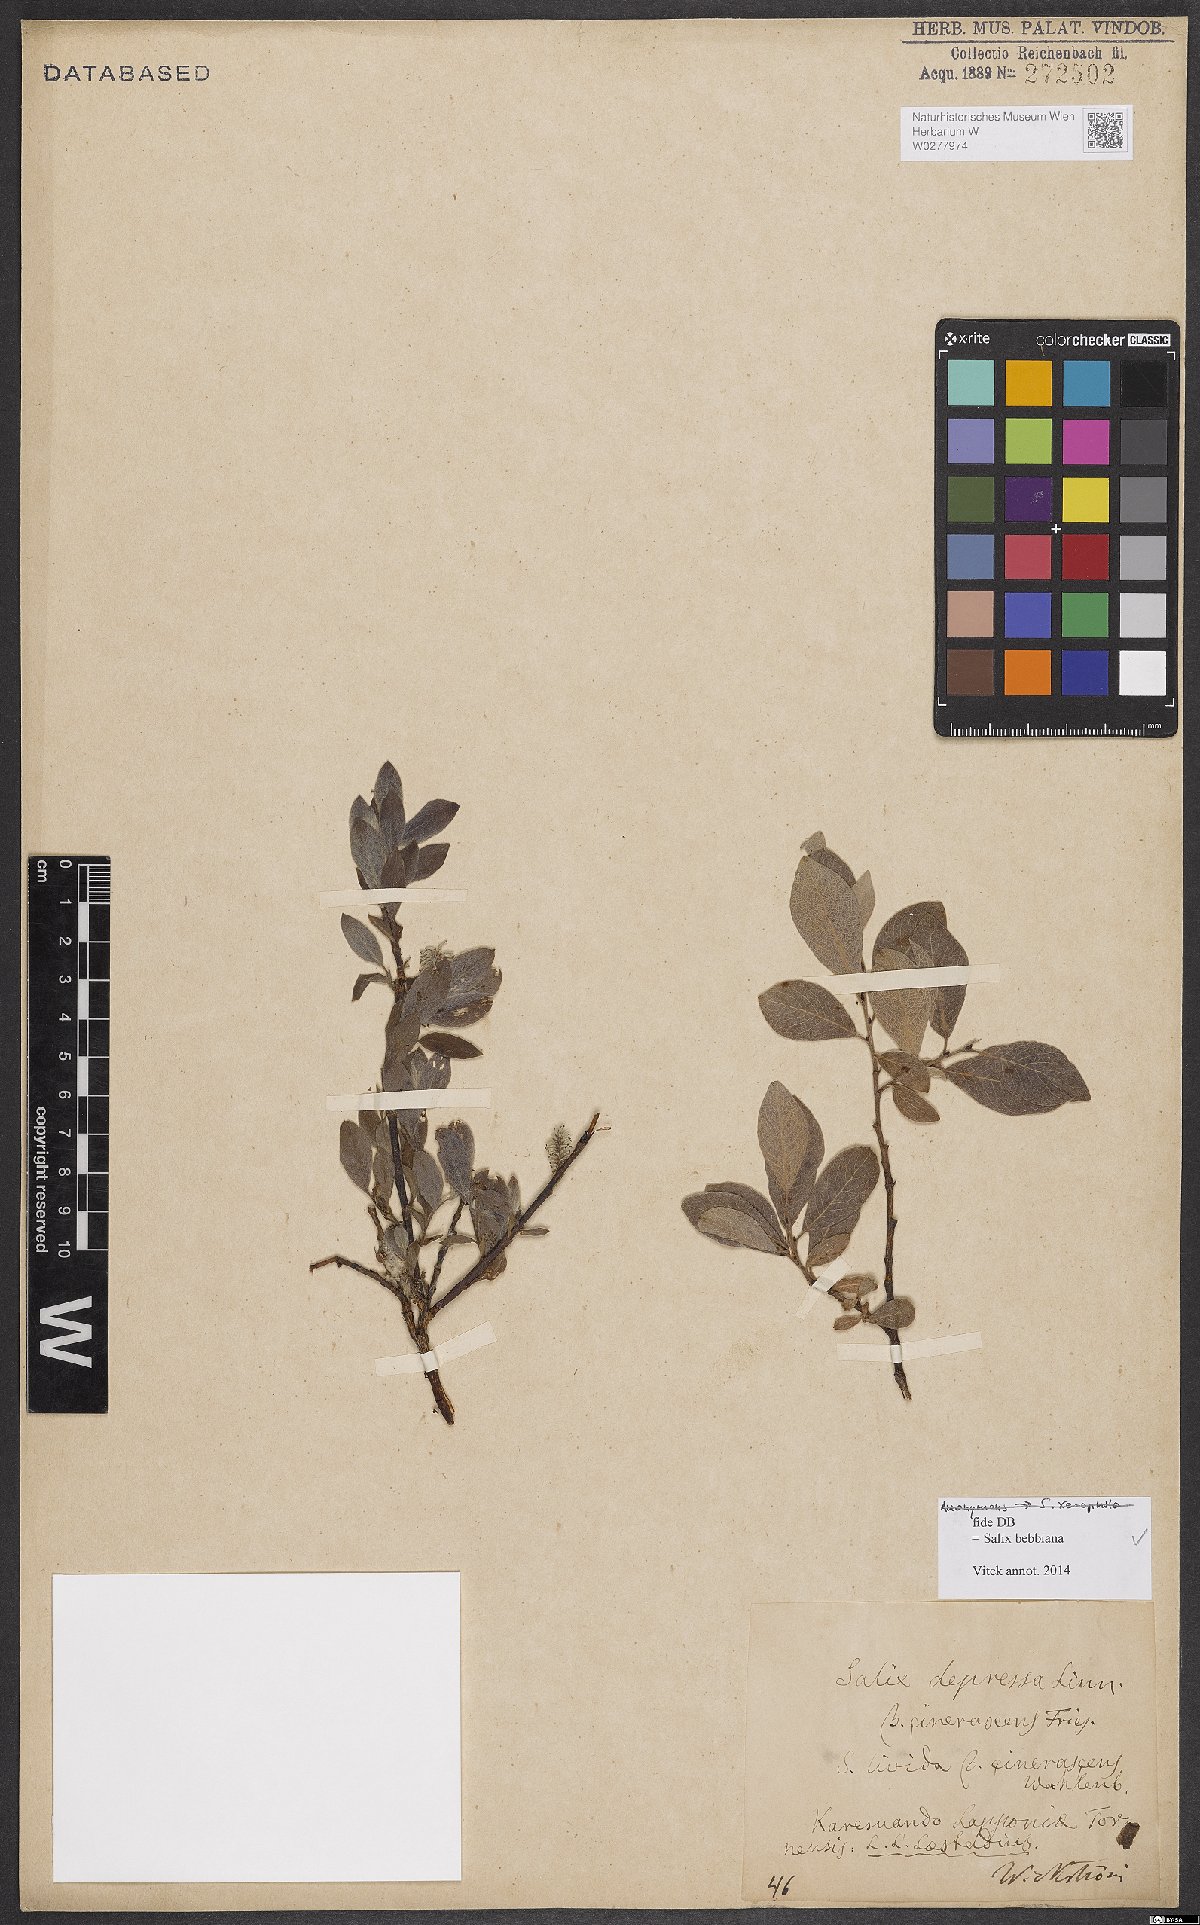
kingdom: Plantae
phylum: Tracheophyta
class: Magnoliopsida
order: Malpighiales
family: Salicaceae
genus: Salix
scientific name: Salix bebbiana
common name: Bebb's willow
